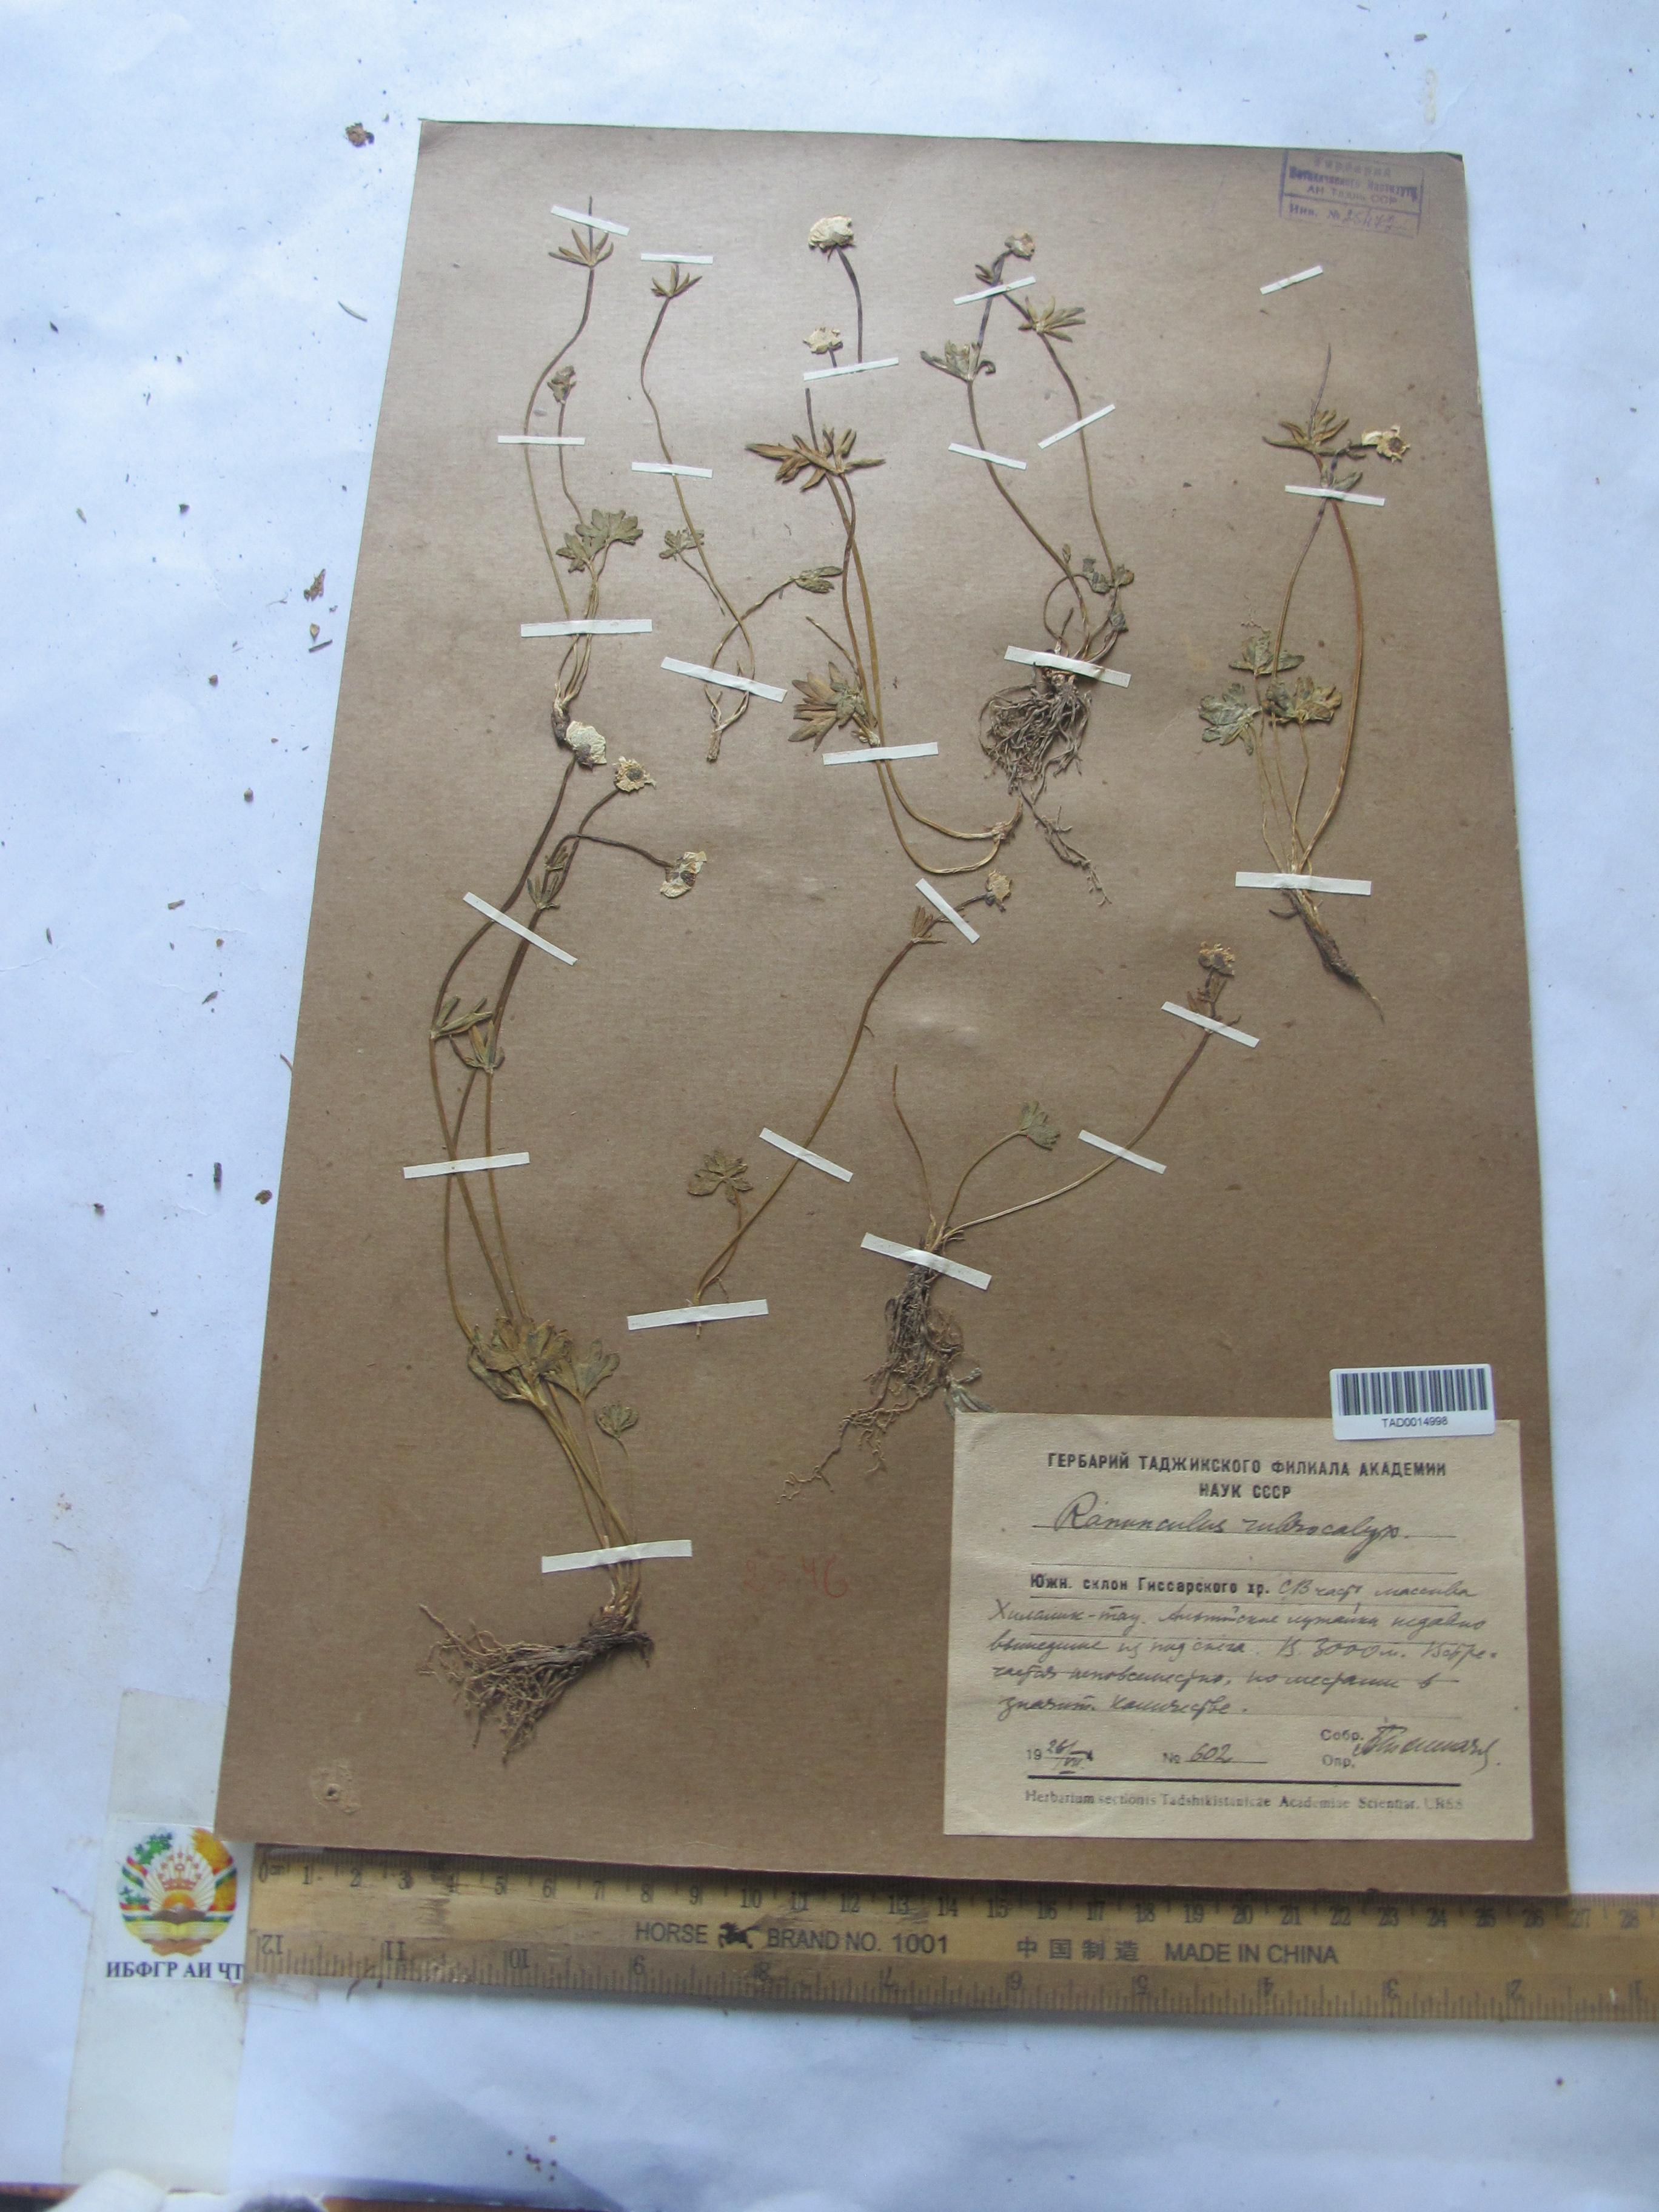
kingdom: Plantae
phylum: Tracheophyta
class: Magnoliopsida
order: Ranunculales
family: Ranunculaceae
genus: Ranunculus
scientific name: Ranunculus rubrocalyx
